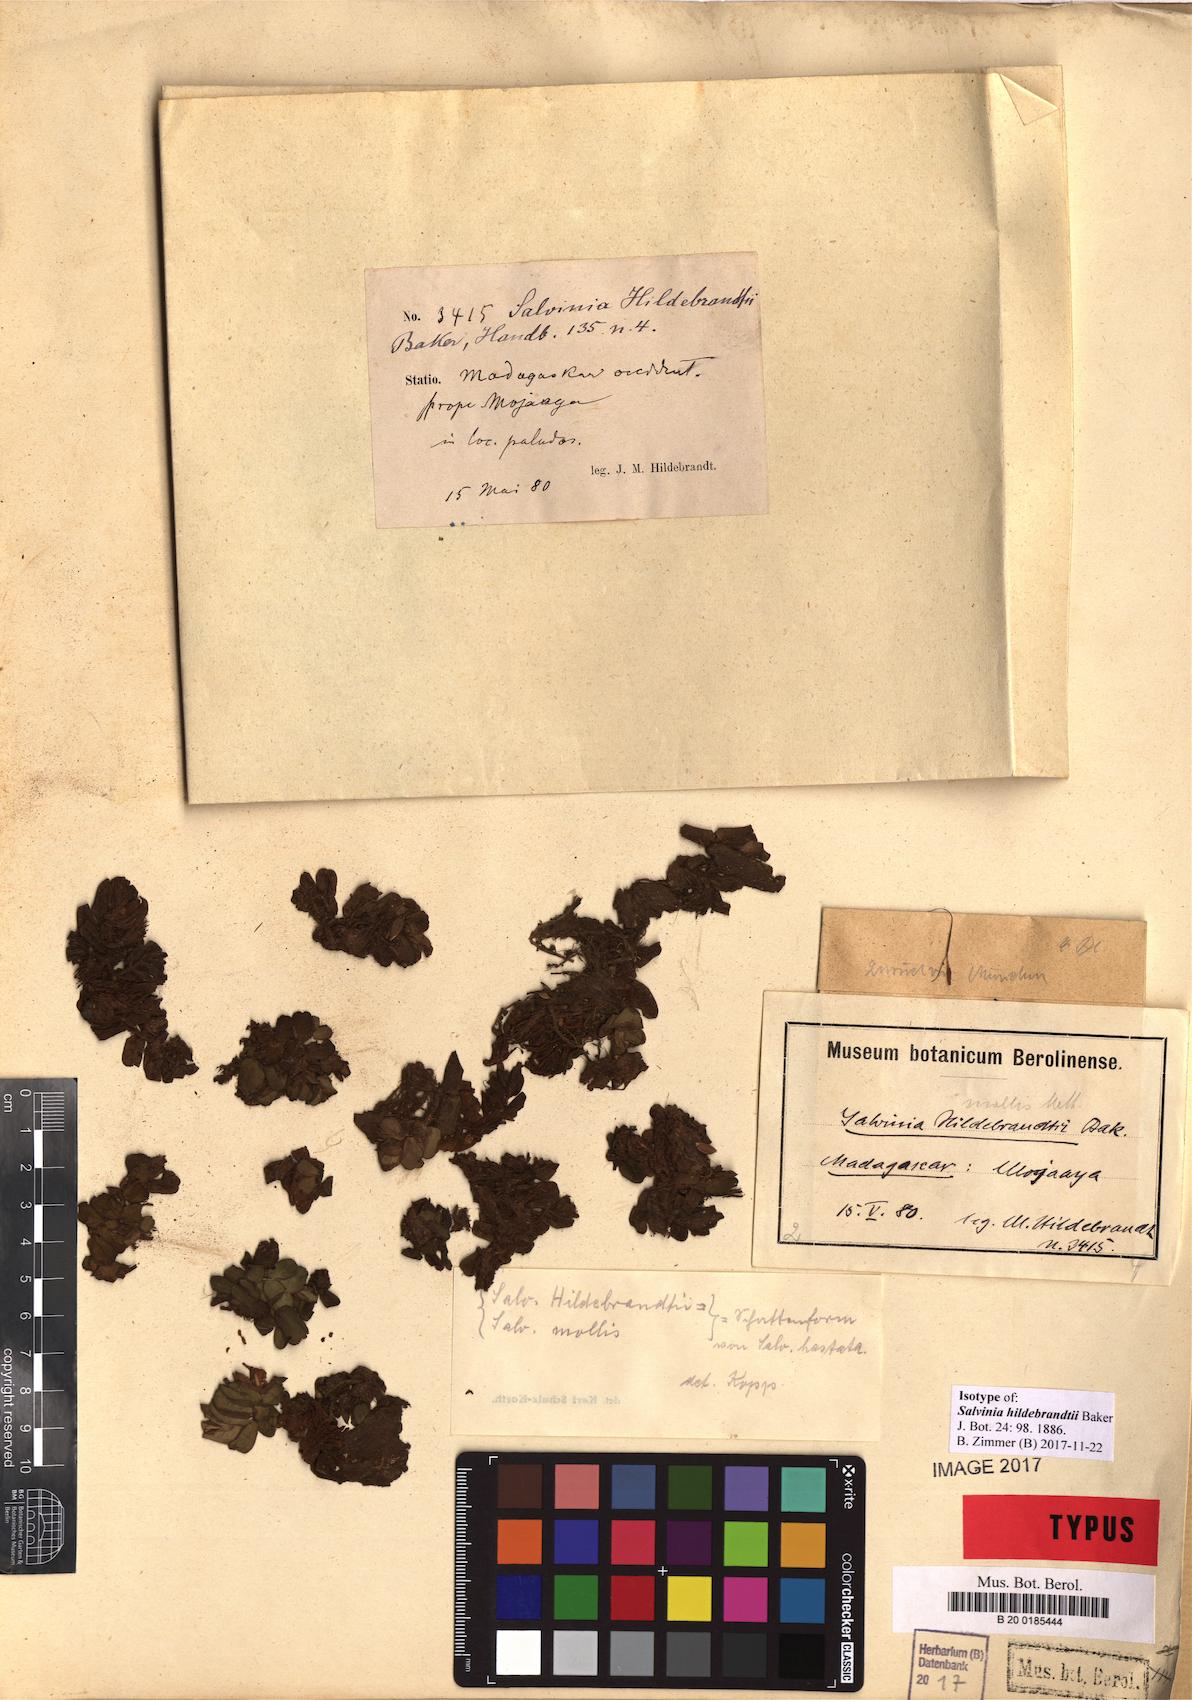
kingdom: Plantae
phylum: Tracheophyta
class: Polypodiopsida
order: Salviniales
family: Salviniaceae
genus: Salvinia
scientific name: Salvinia hastata
